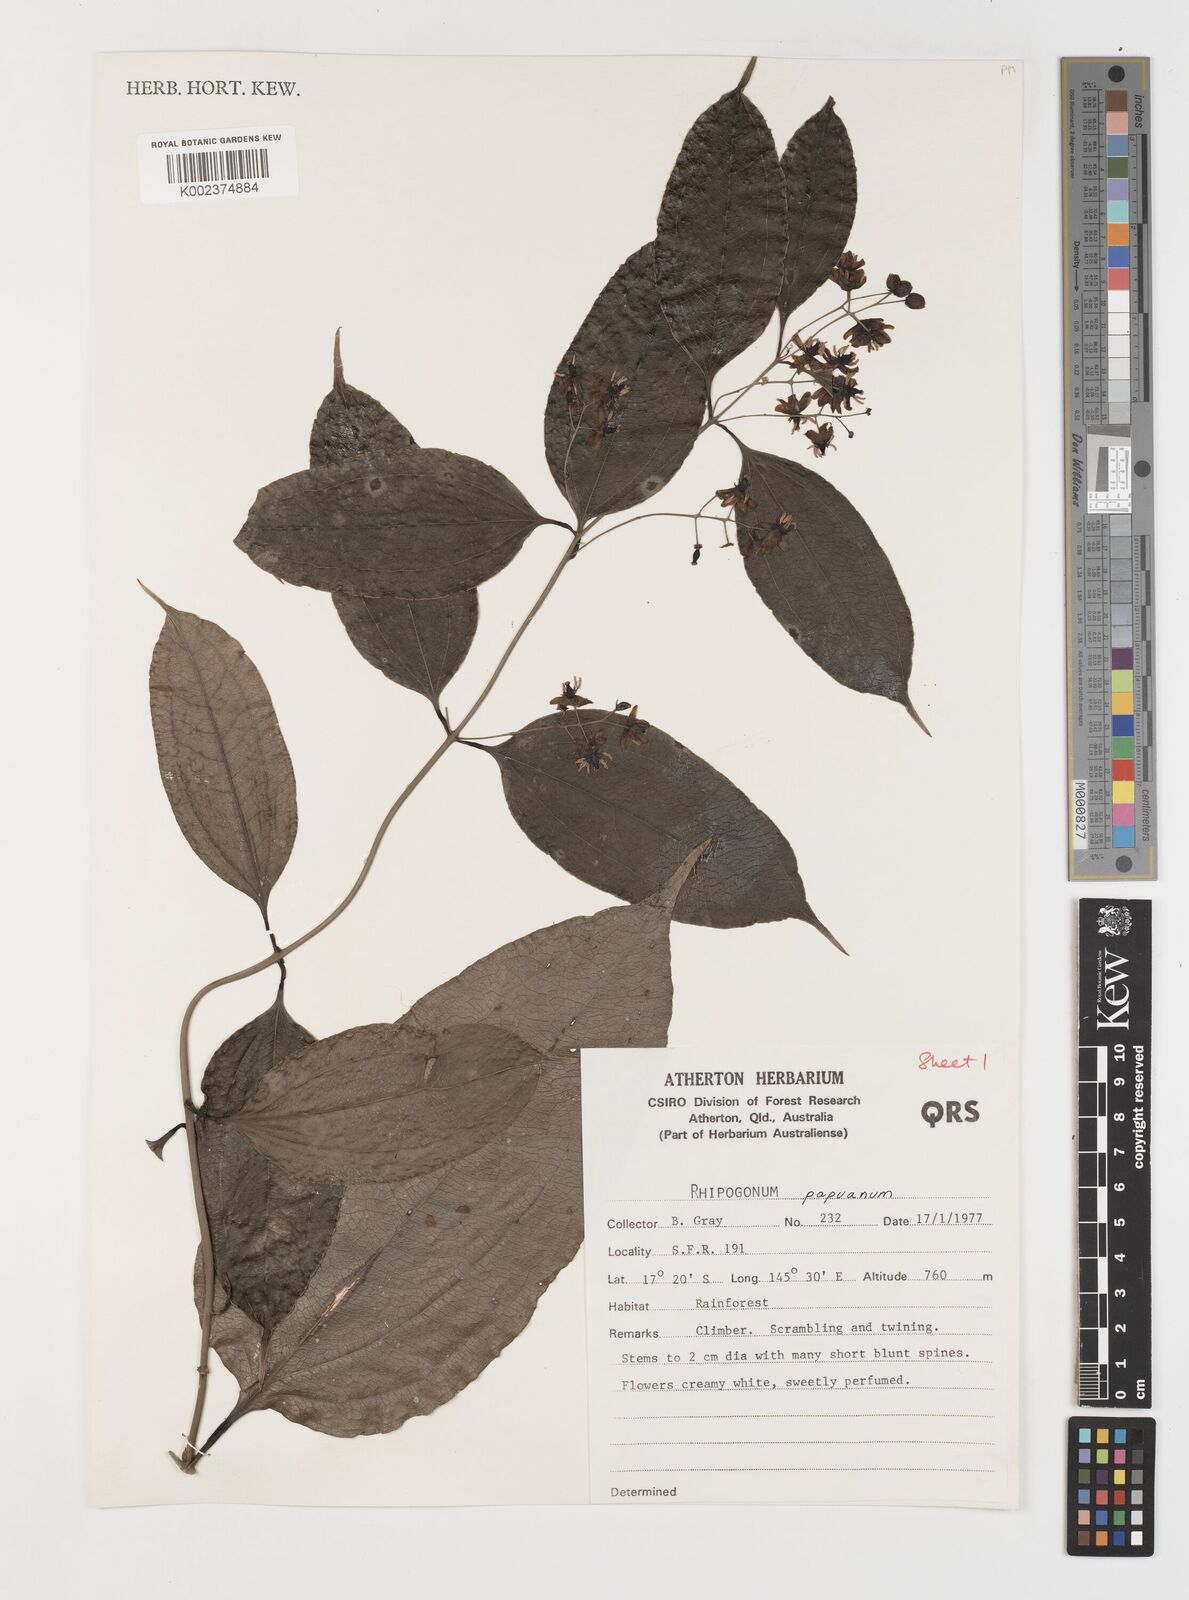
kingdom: Plantae
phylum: Tracheophyta
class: Liliopsida
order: Liliales
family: Ripogonaceae
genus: Ripogonum
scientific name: Ripogonum album
